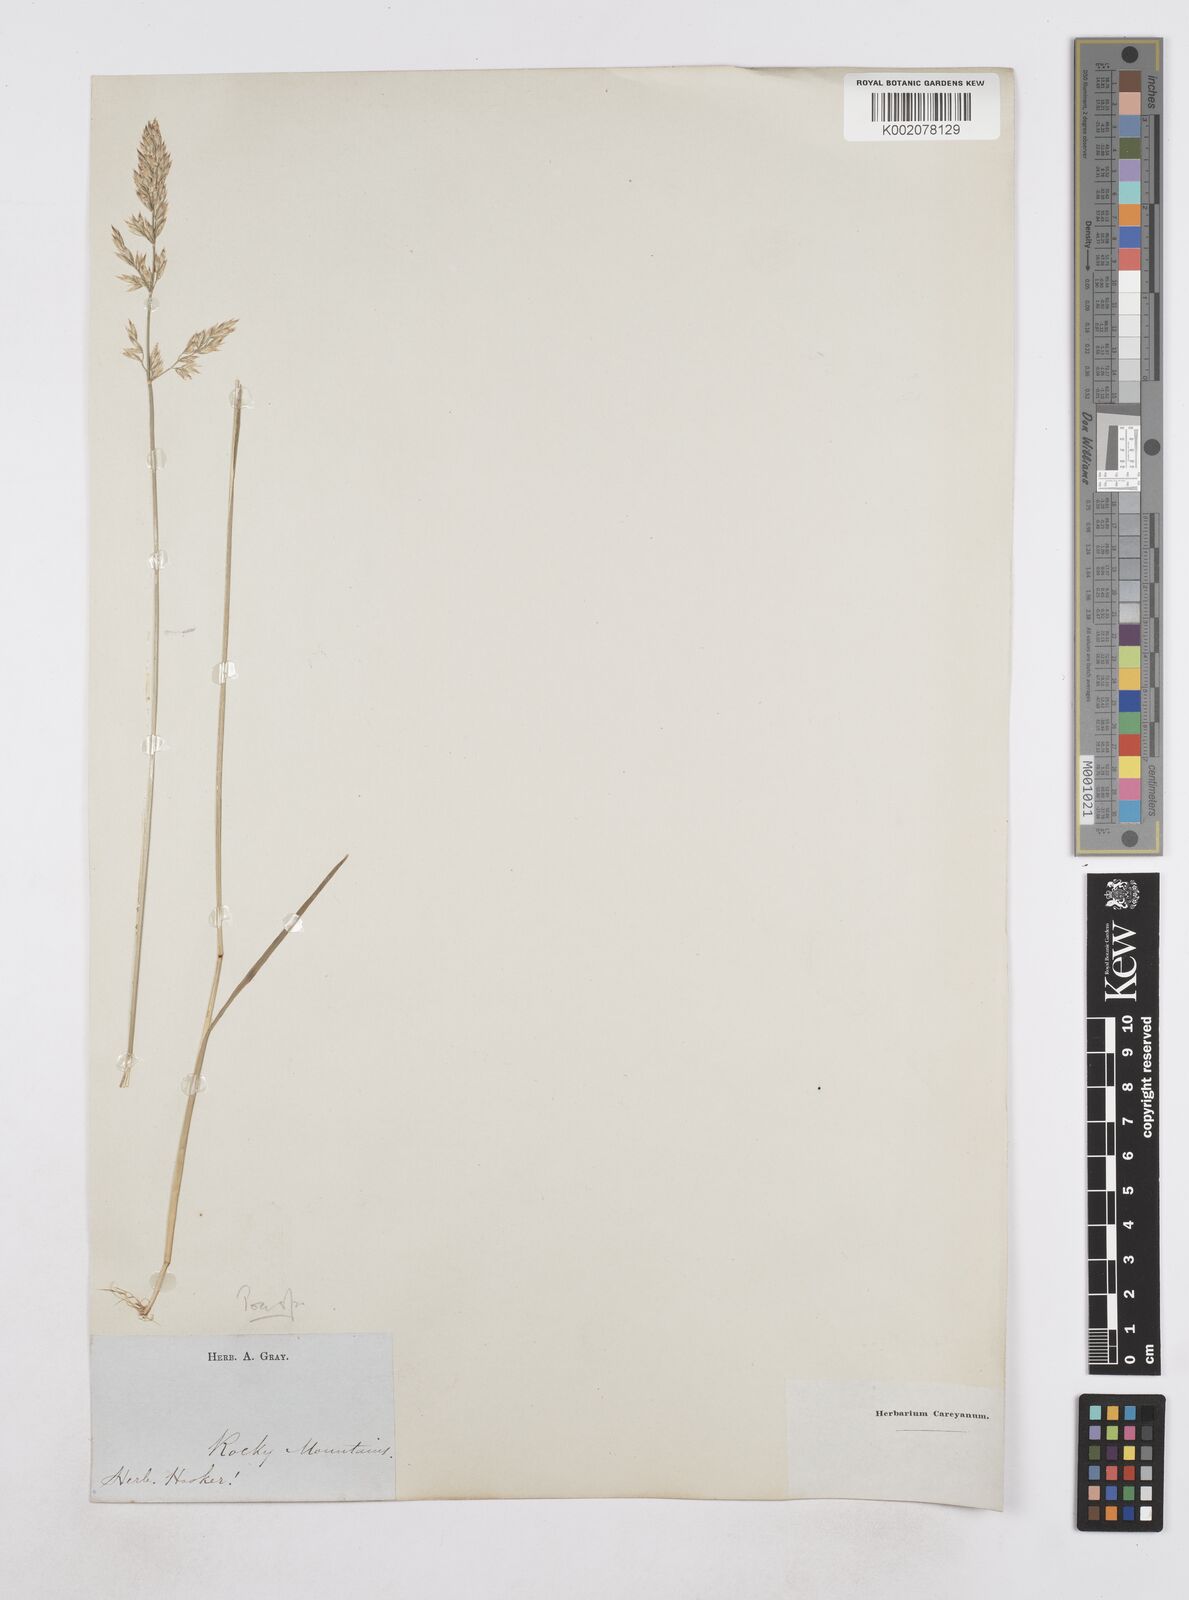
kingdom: Plantae
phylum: Tracheophyta
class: Liliopsida
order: Poales
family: Poaceae
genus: Poa
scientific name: Poa
